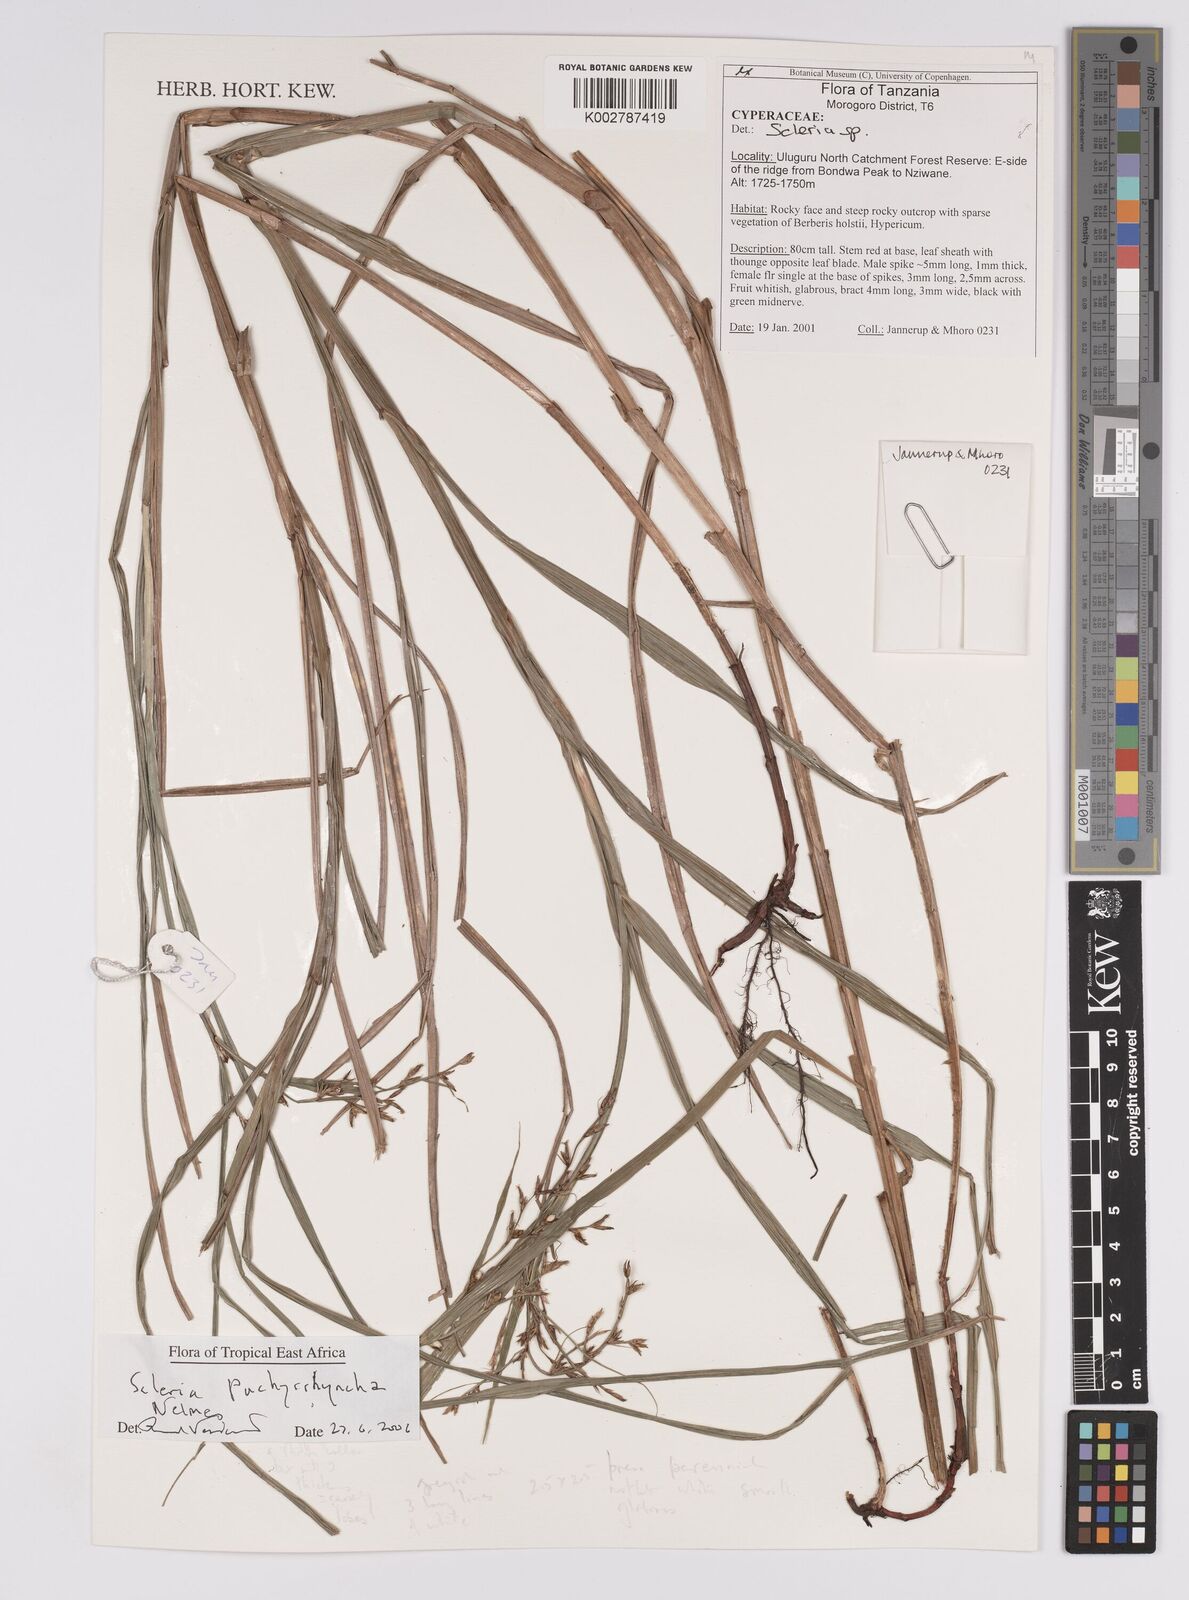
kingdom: Plantae
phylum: Tracheophyta
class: Liliopsida
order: Poales
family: Cyperaceae
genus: Scleria
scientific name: Scleria pachyrrhyncha
